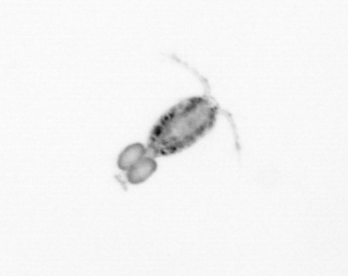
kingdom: Animalia
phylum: Arthropoda
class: Copepoda
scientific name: Copepoda
